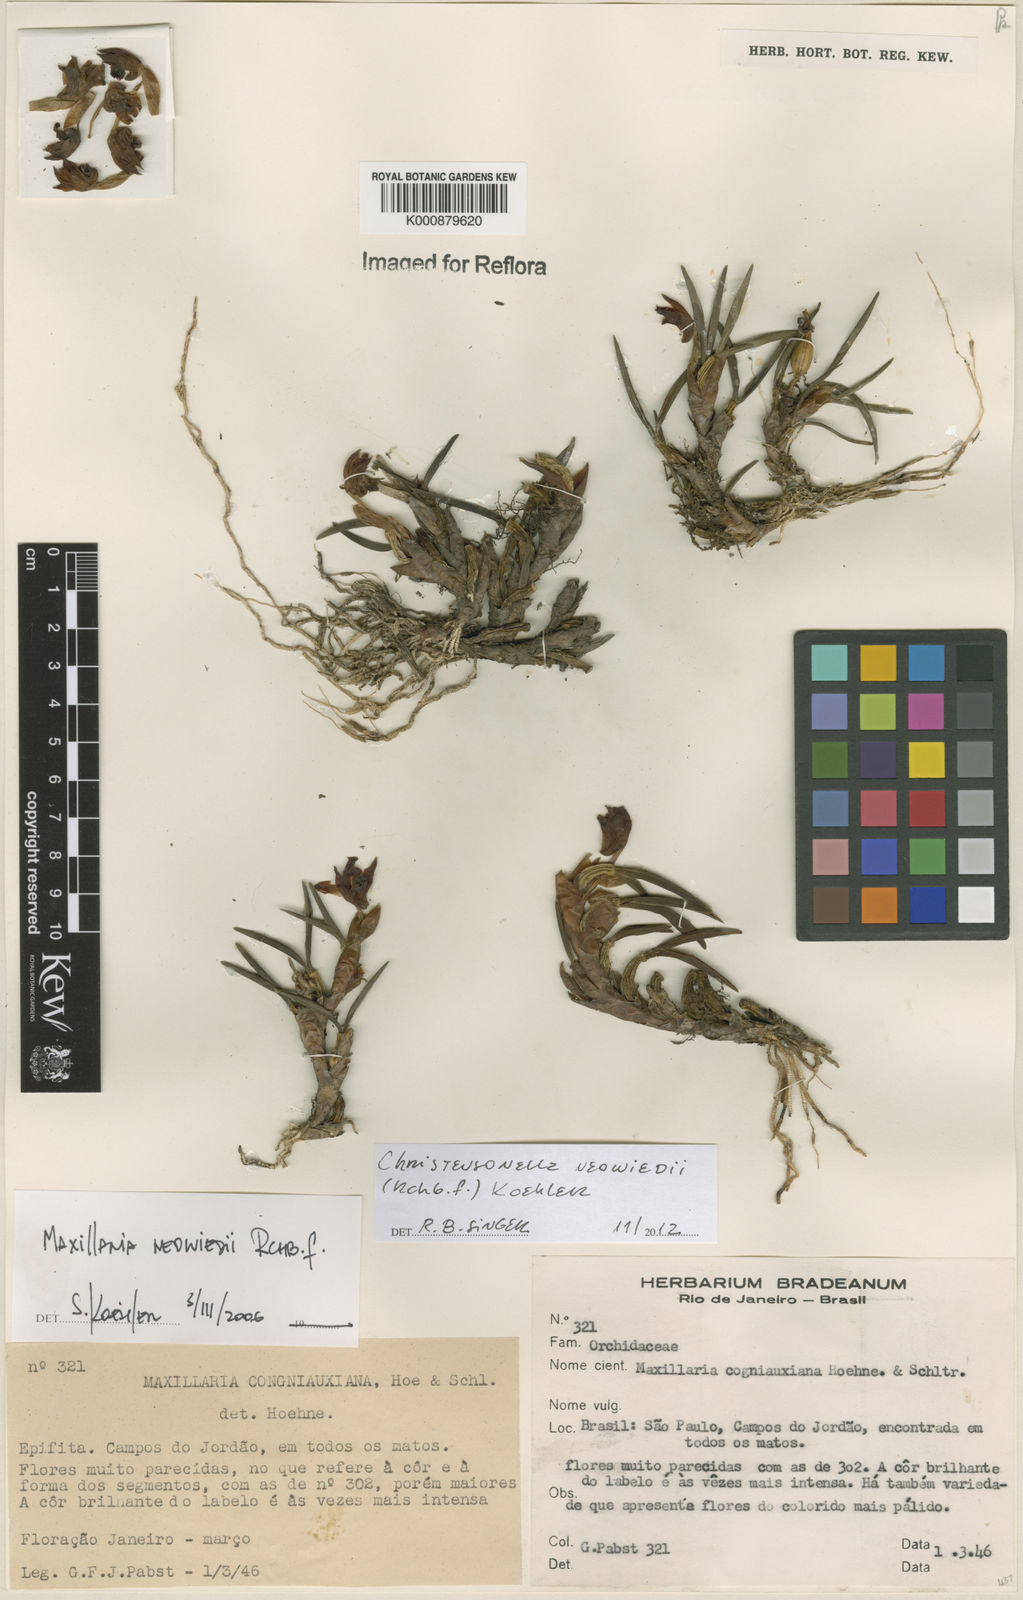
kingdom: Plantae
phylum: Tracheophyta
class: Liliopsida
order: Asparagales
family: Orchidaceae
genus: Maxillaria
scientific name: Maxillaria
